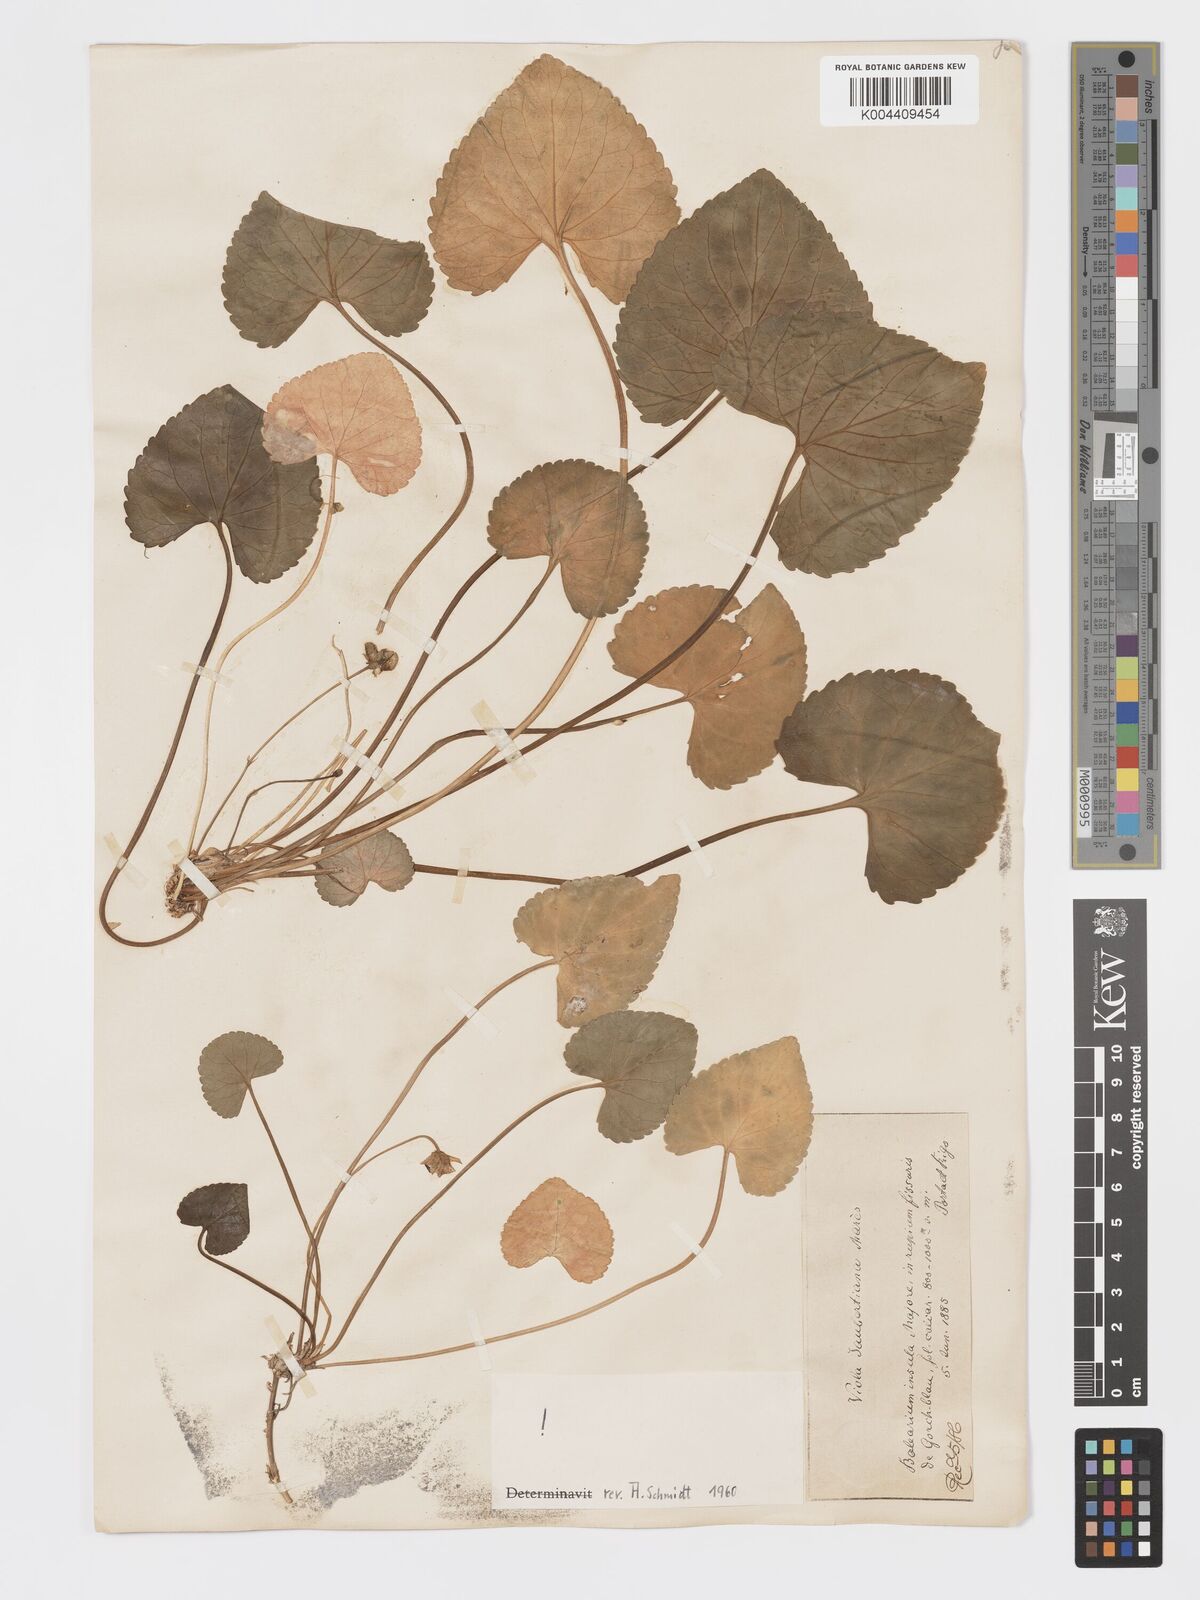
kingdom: Plantae
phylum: Tracheophyta
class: Magnoliopsida
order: Malpighiales
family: Violaceae
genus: Viola
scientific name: Viola jaubertiana
